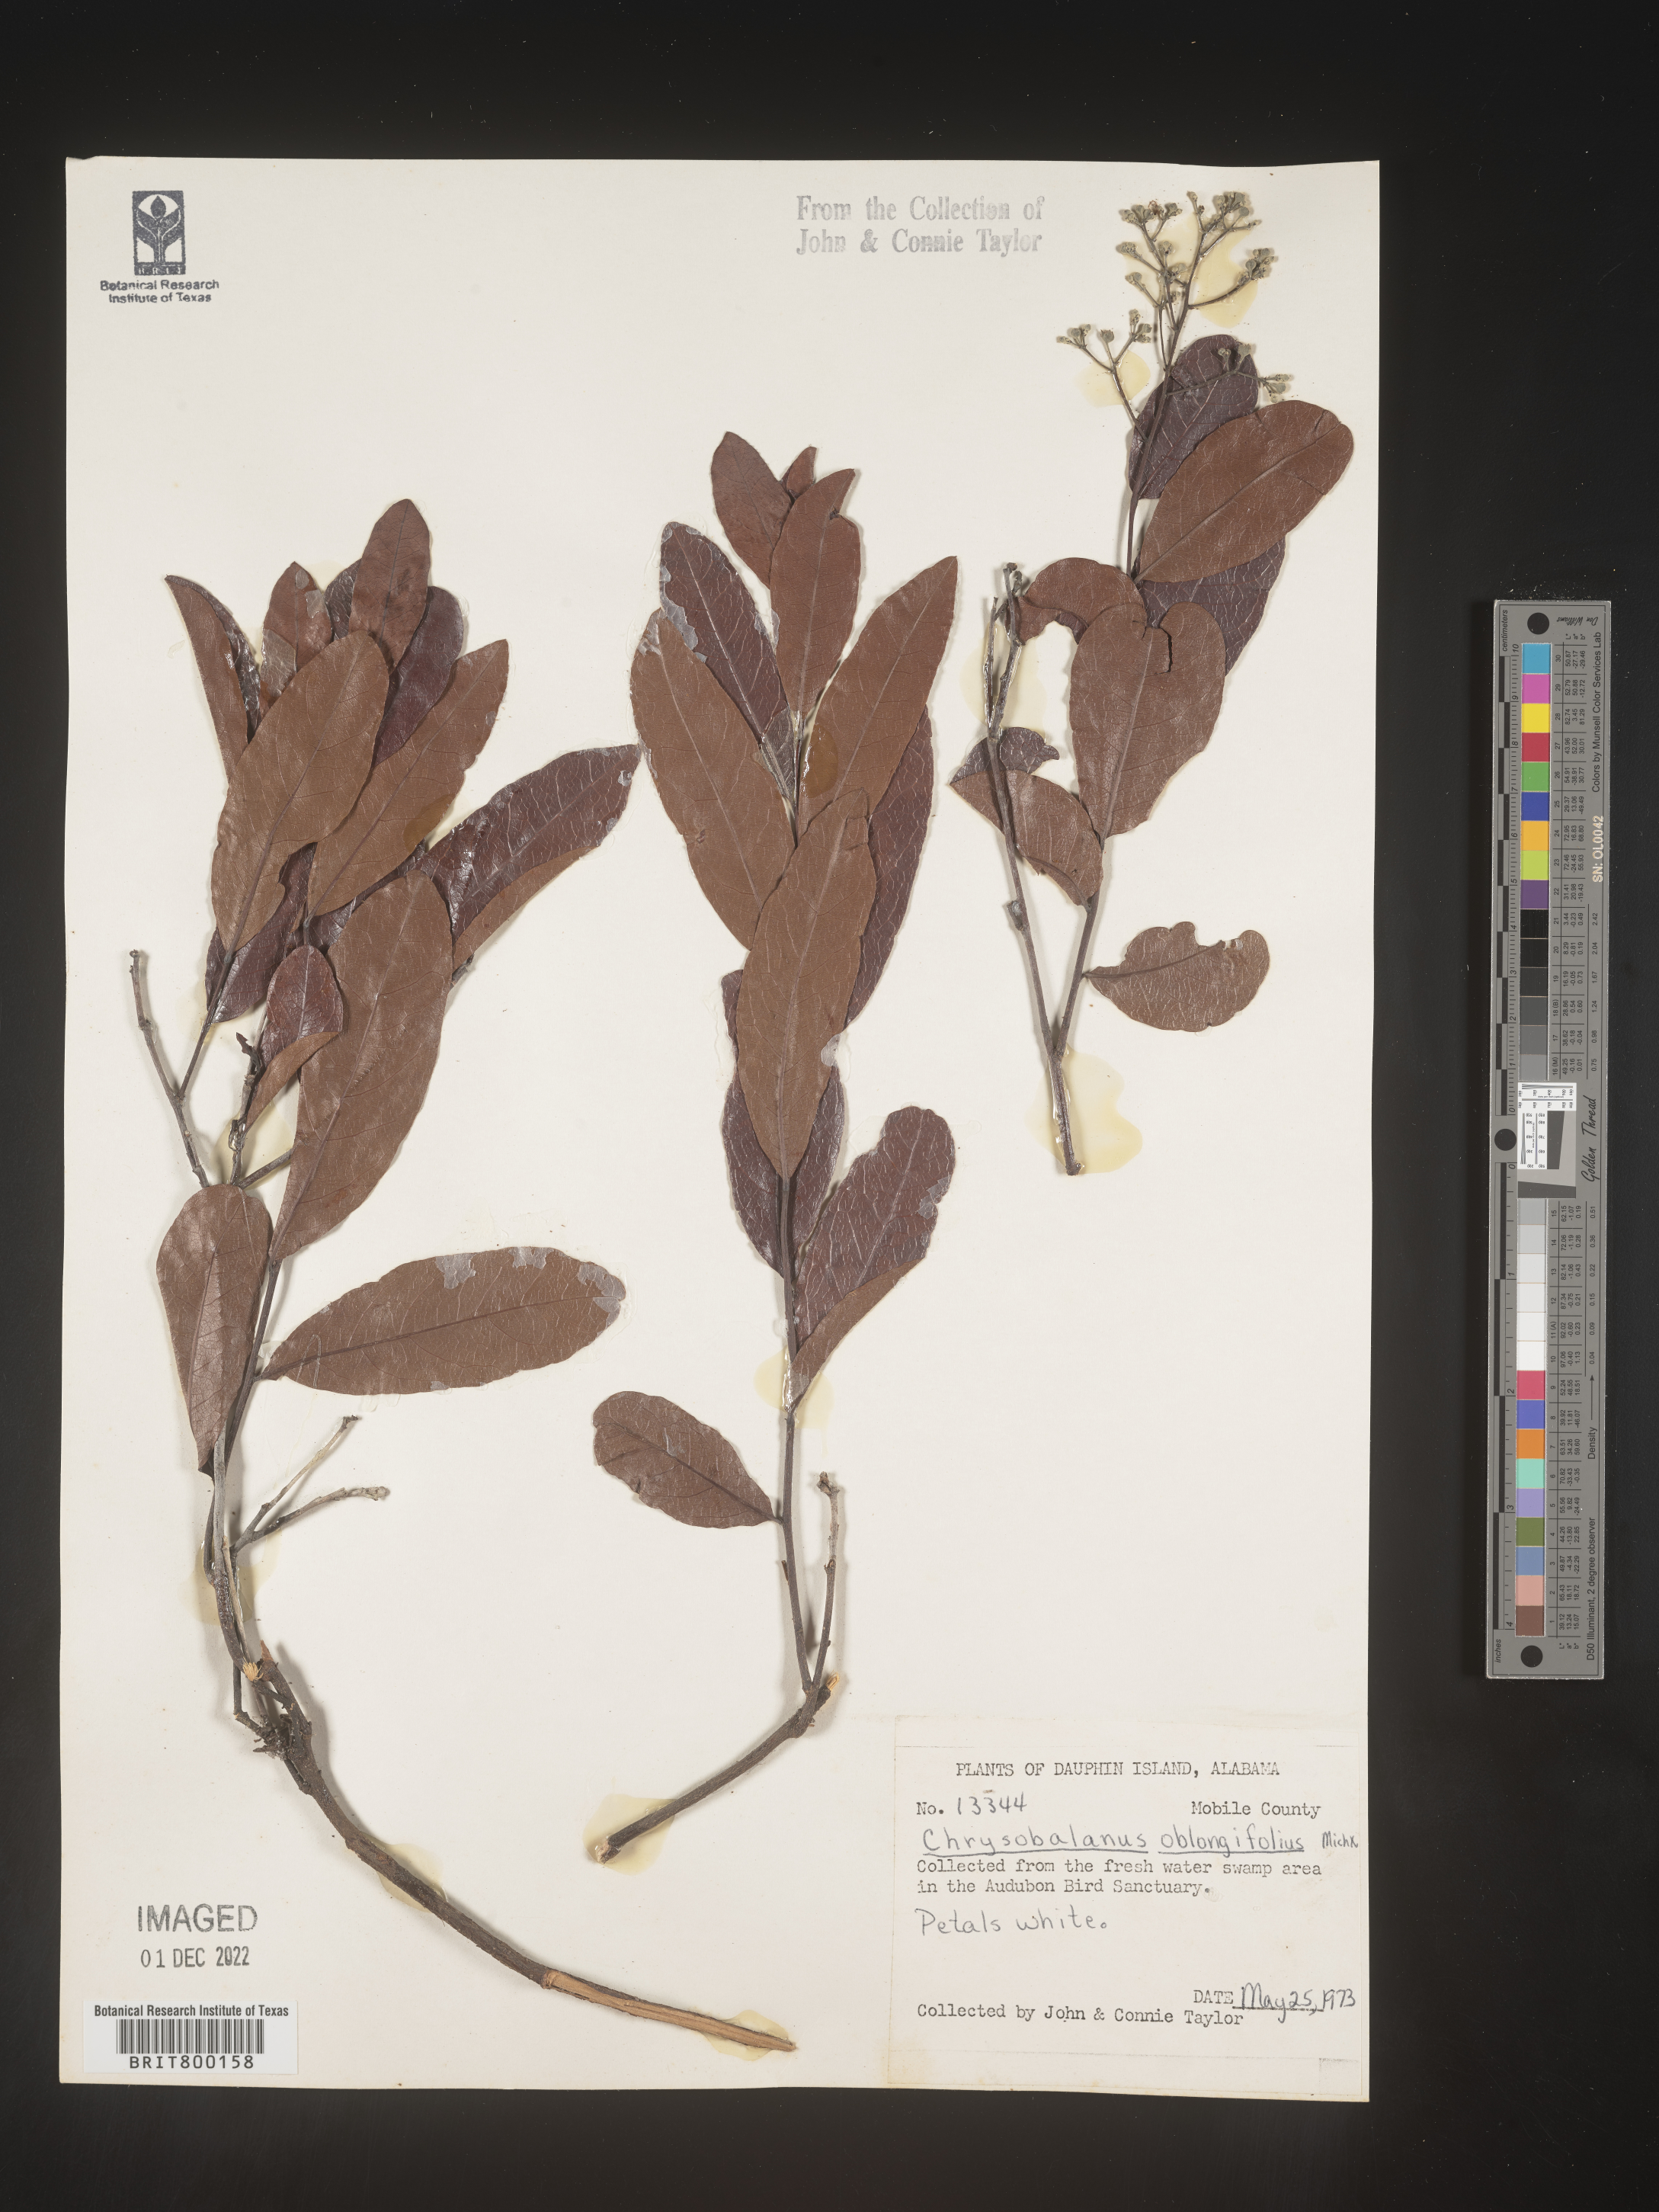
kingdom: Plantae
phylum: Tracheophyta
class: Magnoliopsida
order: Malpighiales
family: Chrysobalanaceae
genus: Geobalanus
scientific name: Geobalanus oblongifolius
